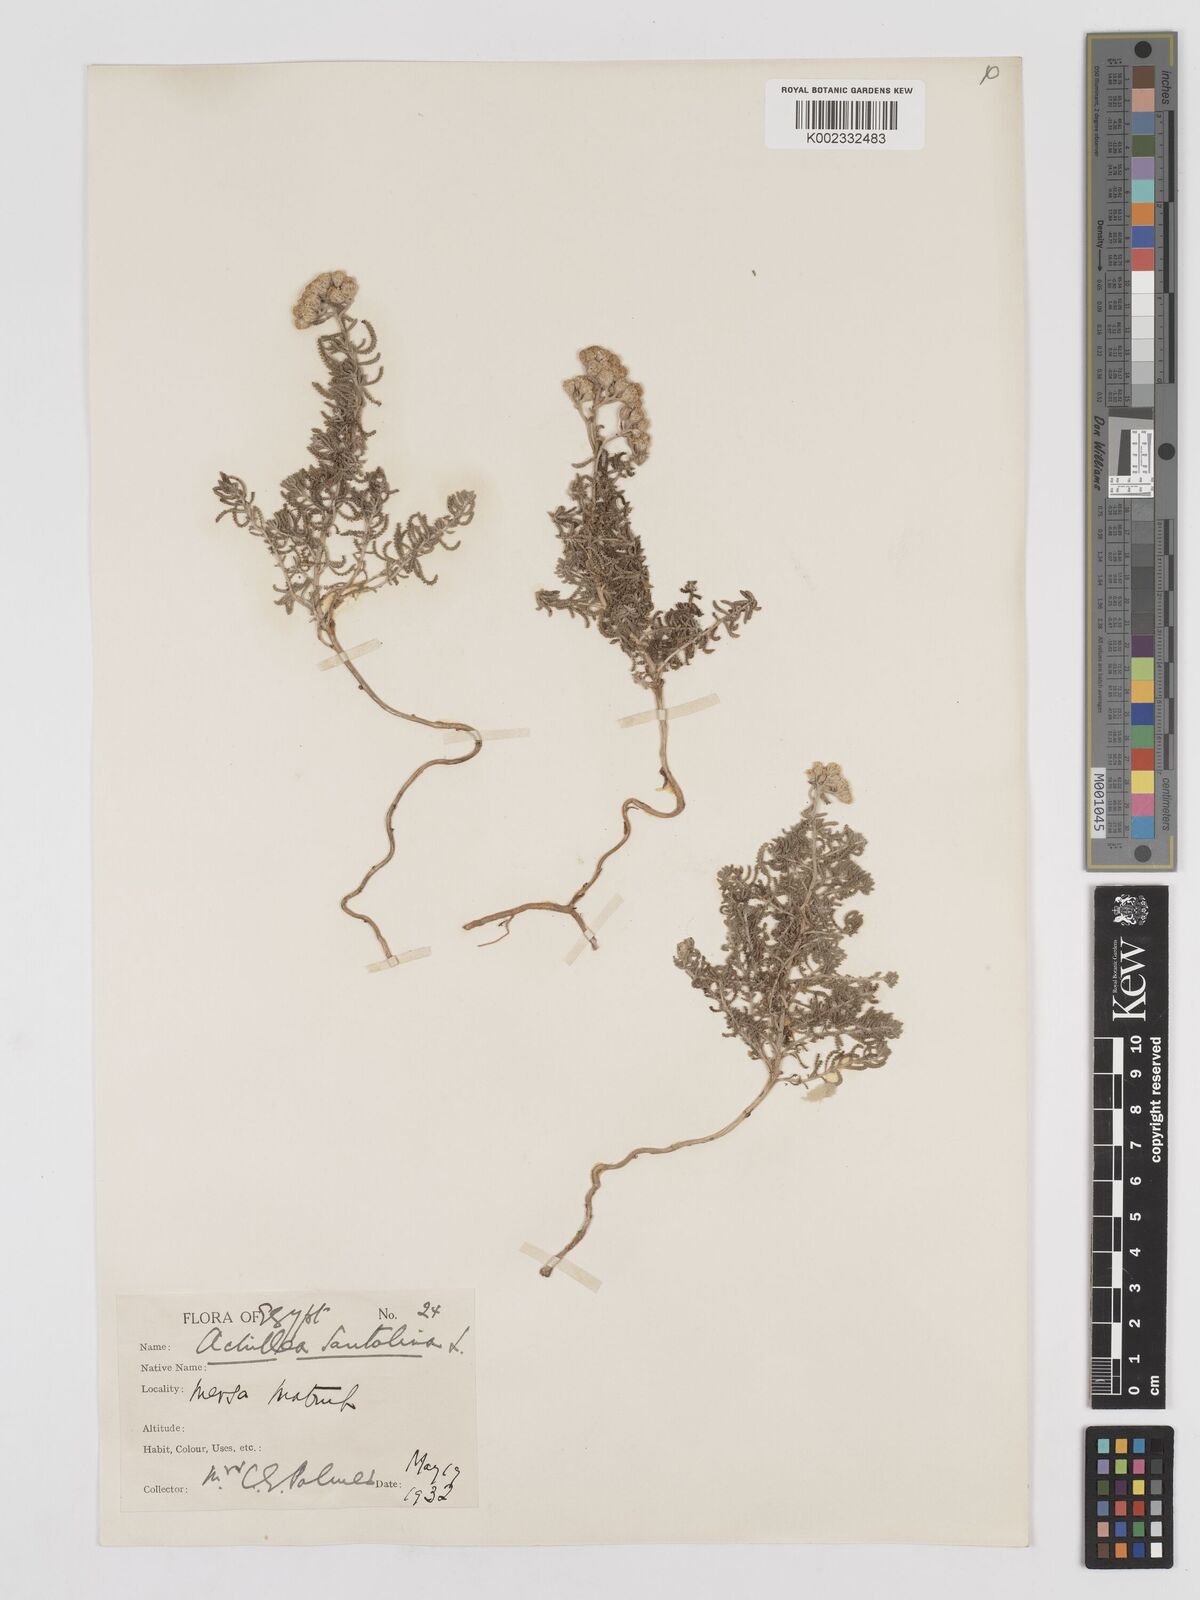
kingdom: Plantae
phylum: Tracheophyta
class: Magnoliopsida
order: Asterales
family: Asteraceae
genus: Achillea
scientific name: Achillea tenuifolia
